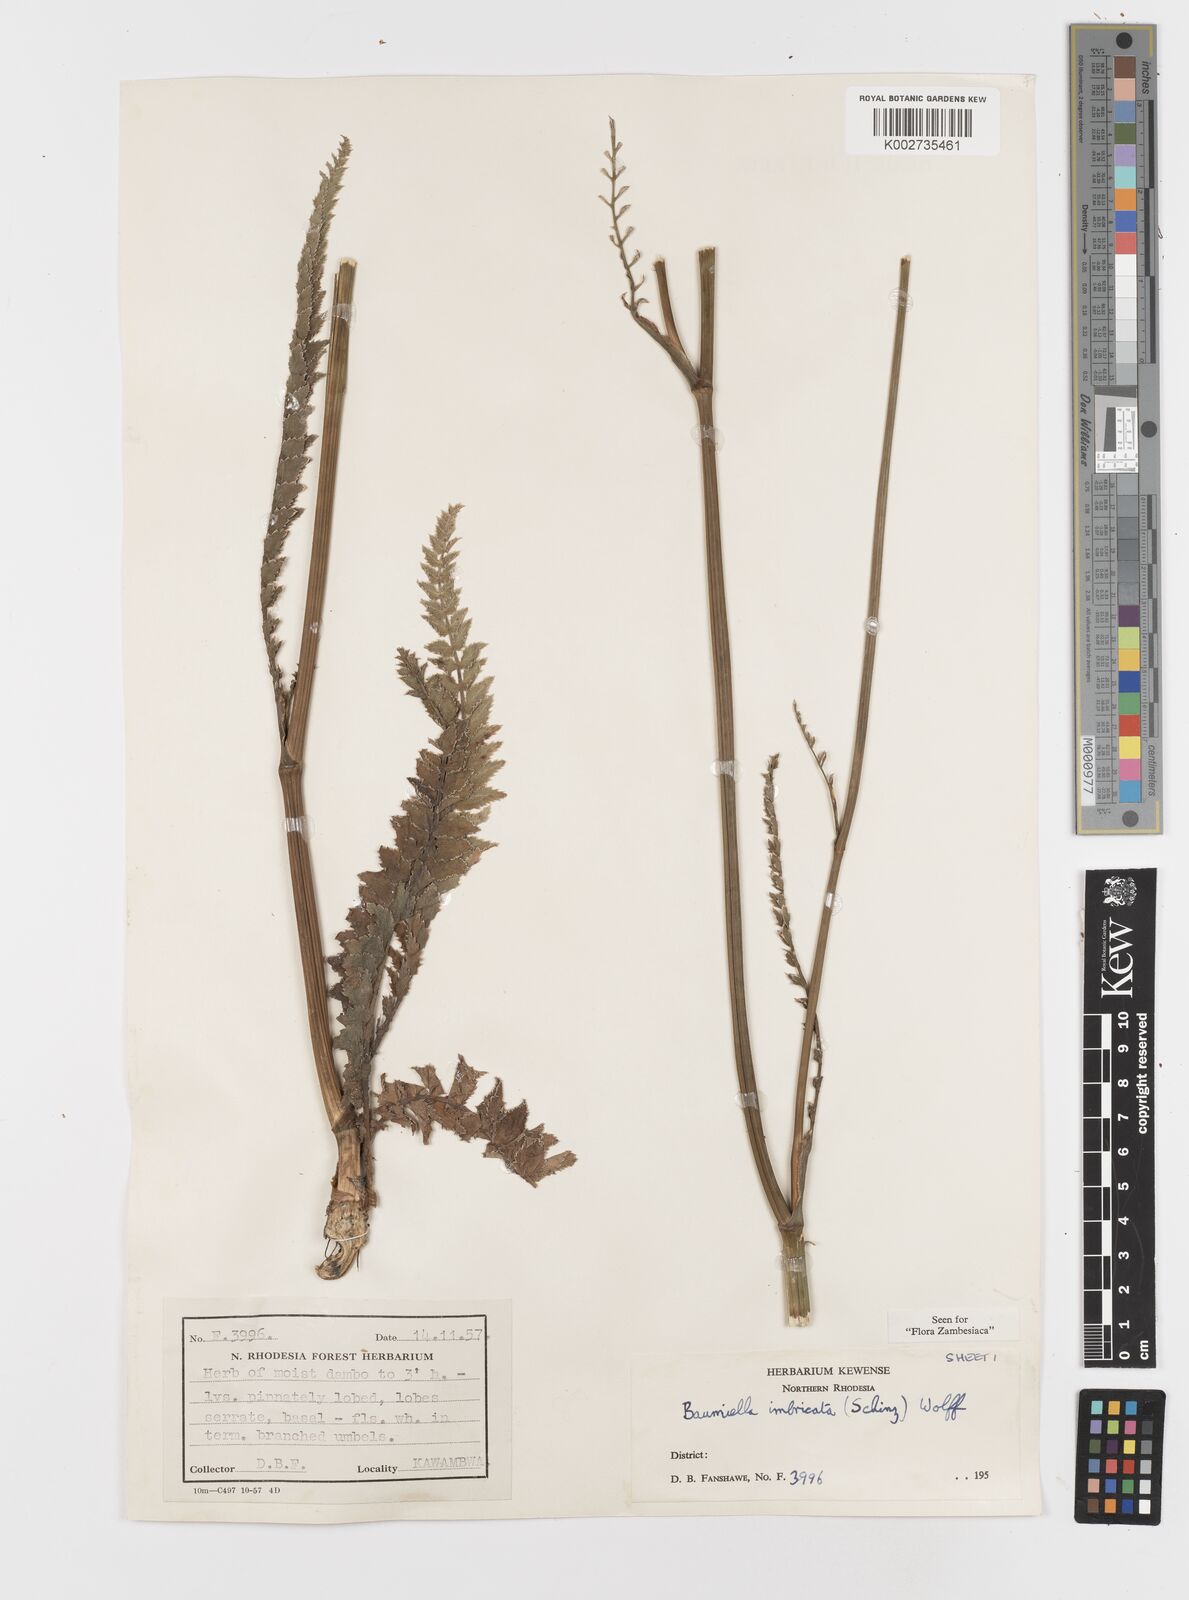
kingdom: Plantae
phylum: Tracheophyta
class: Magnoliopsida
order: Apiales
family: Apiaceae
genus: Berula
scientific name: Berula imbricata
